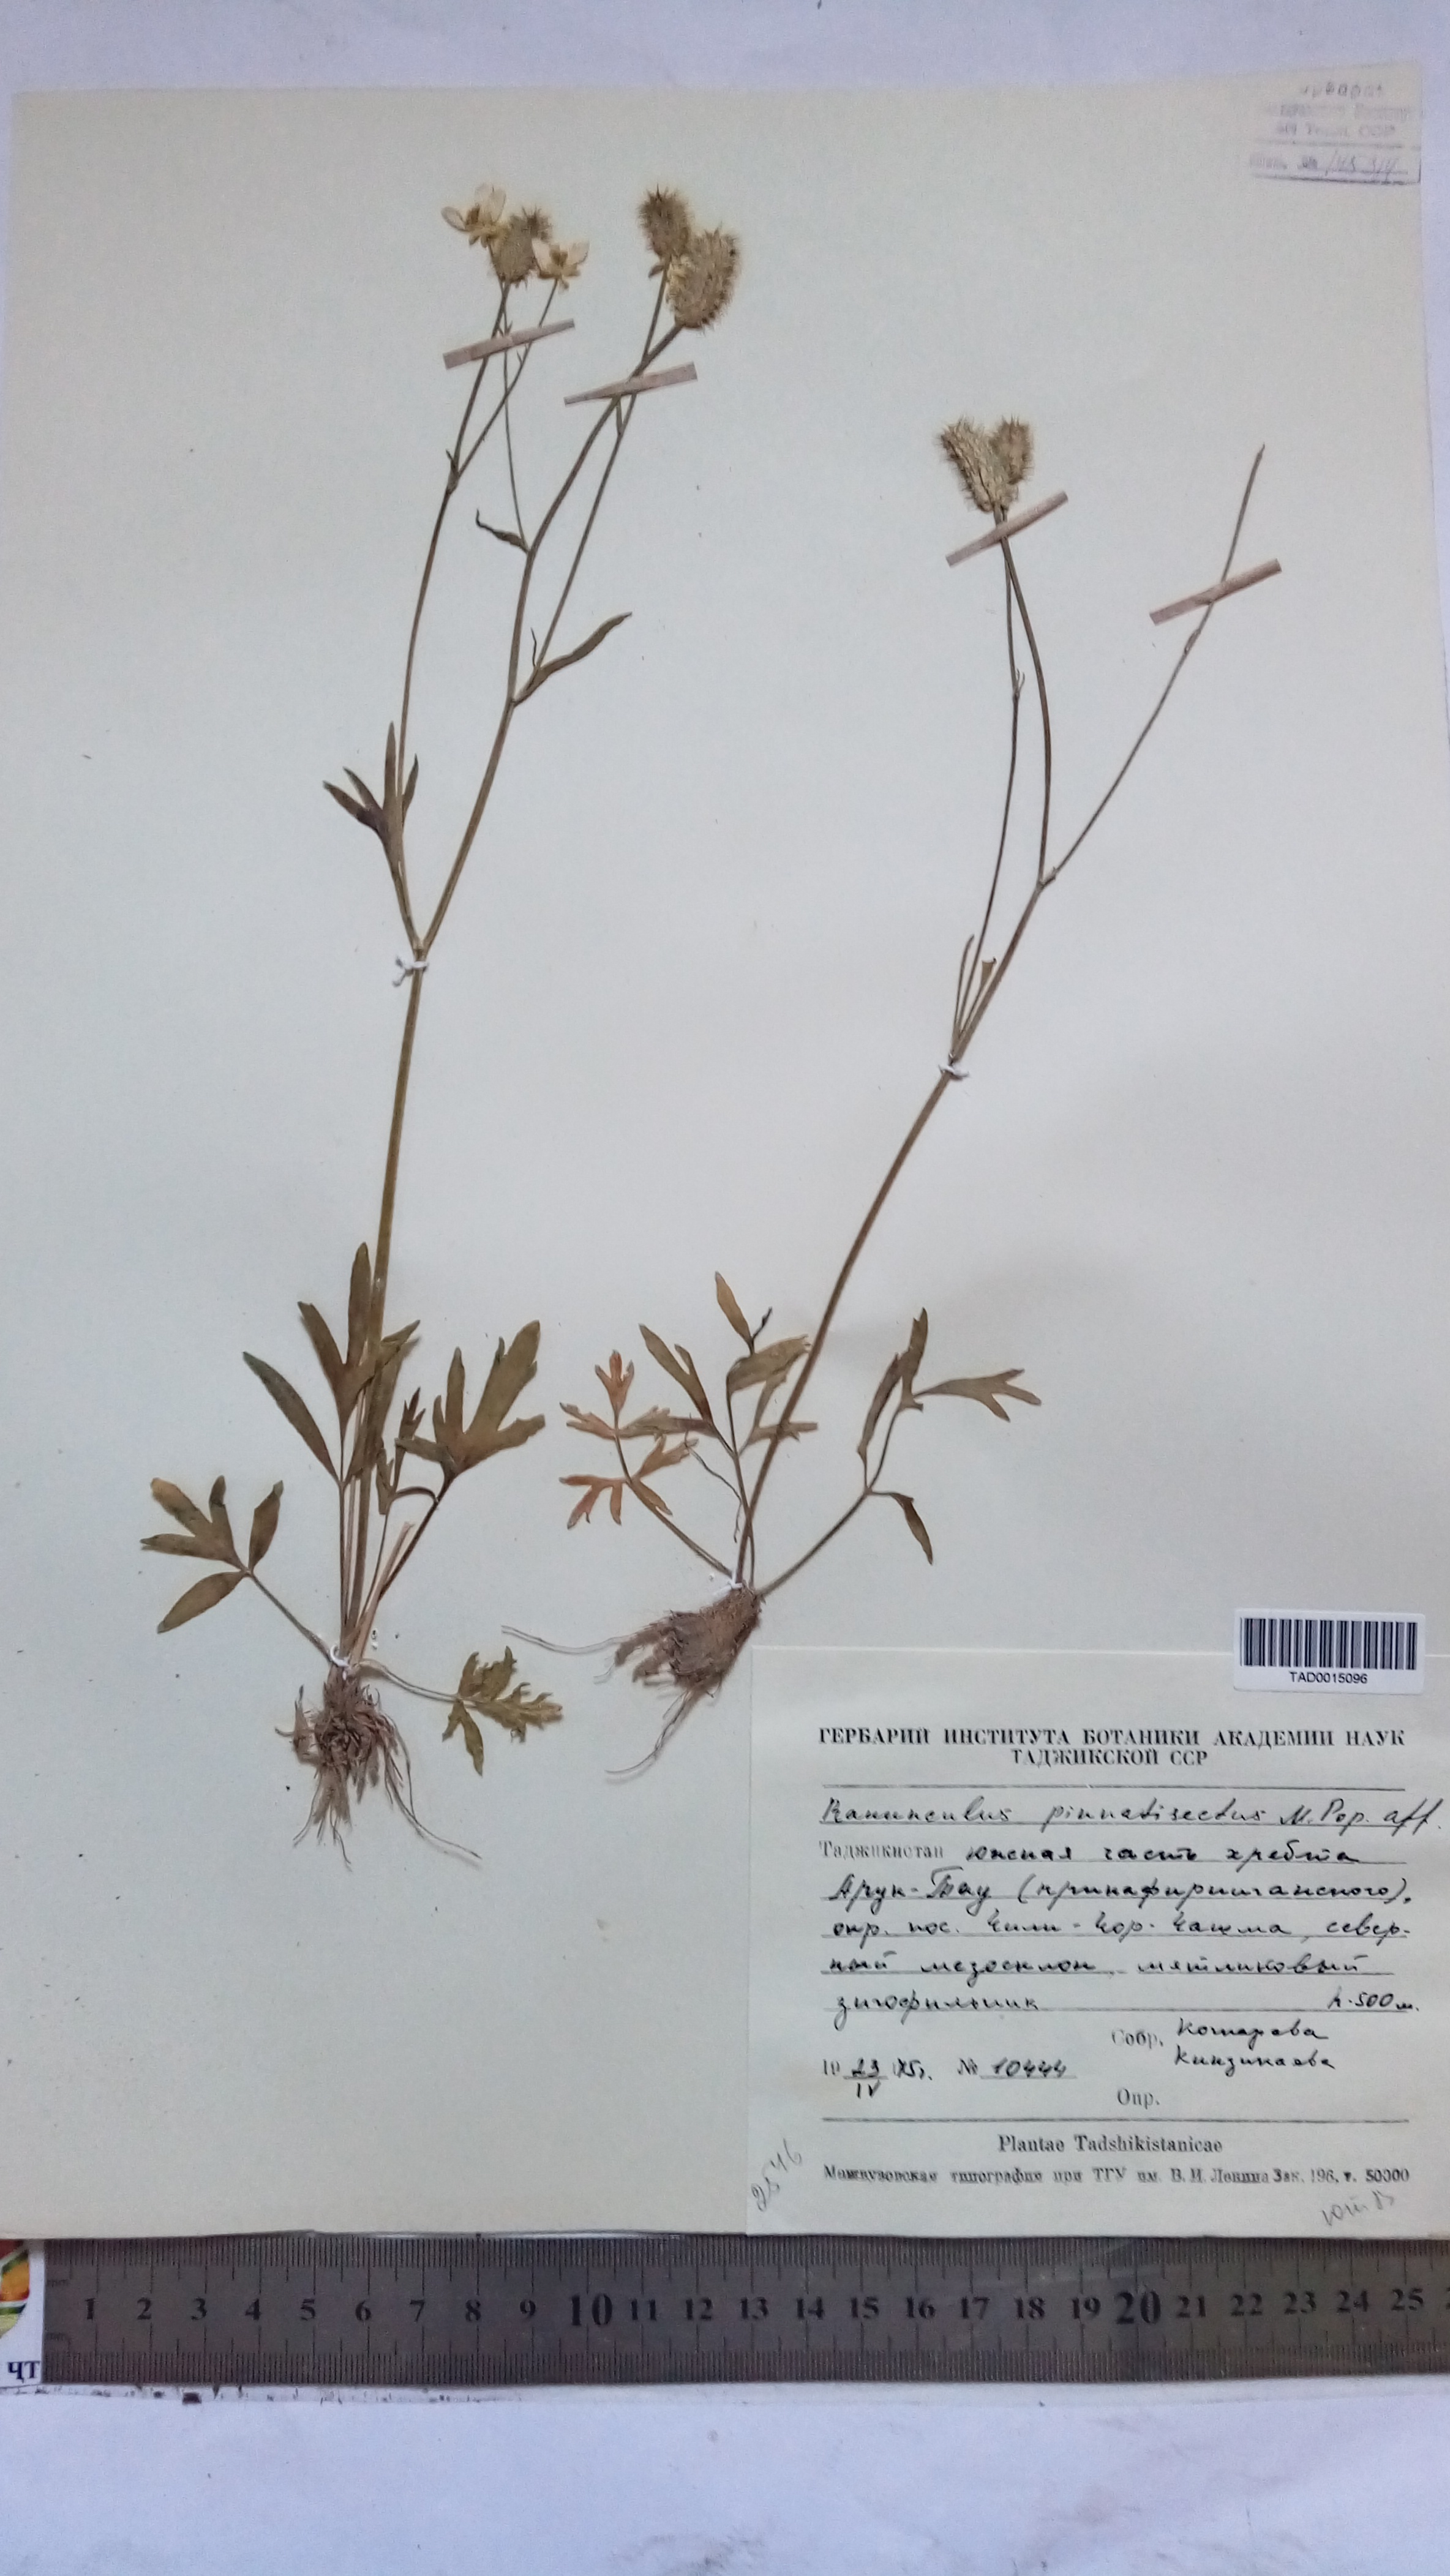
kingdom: Plantae
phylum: Tracheophyta
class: Magnoliopsida
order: Ranunculales
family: Ranunculaceae
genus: Ranunculus
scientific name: Ranunculus pinnatisectus
